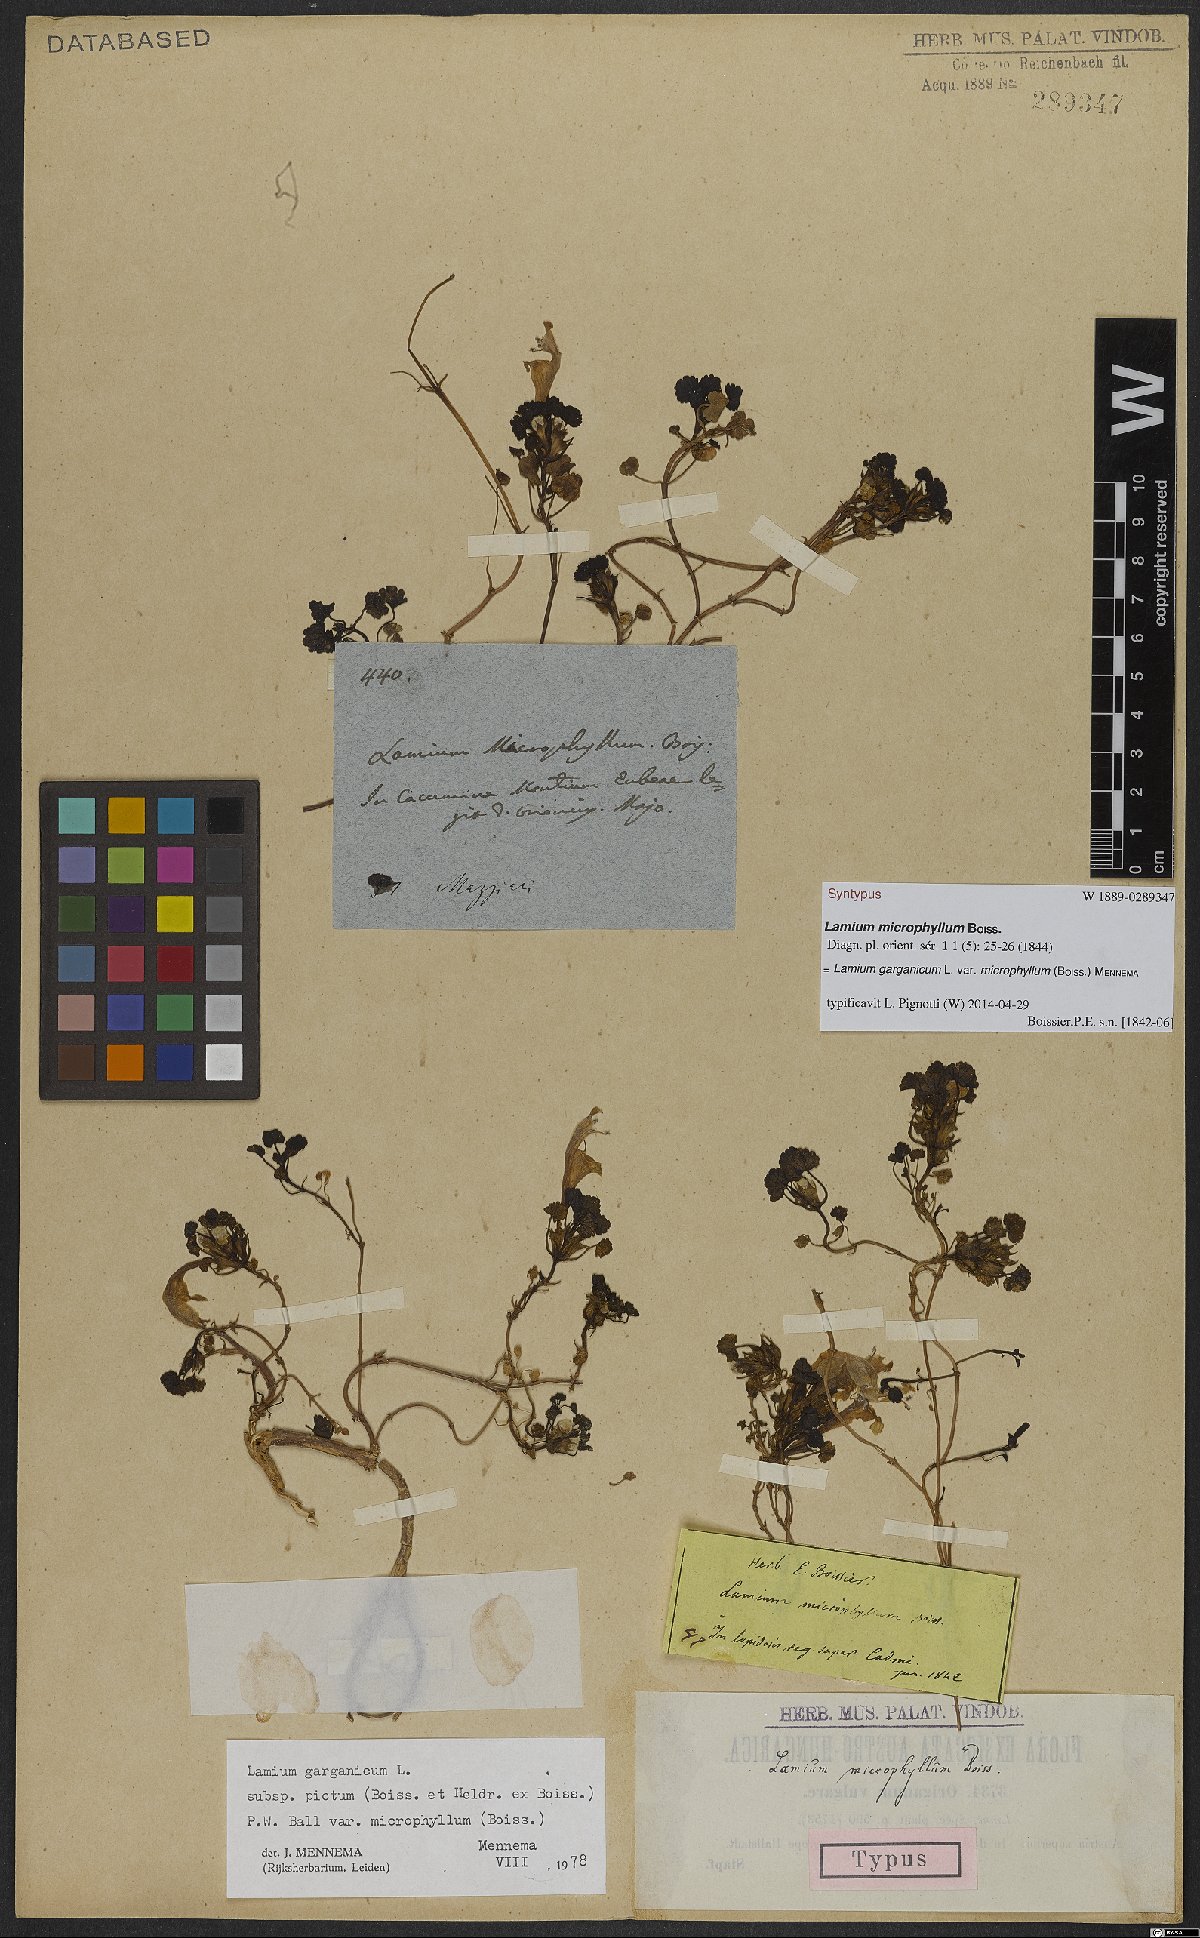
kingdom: Plantae
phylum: Tracheophyta
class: Magnoliopsida
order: Lamiales
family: Lamiaceae
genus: Lamium
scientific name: Lamium garganicum
